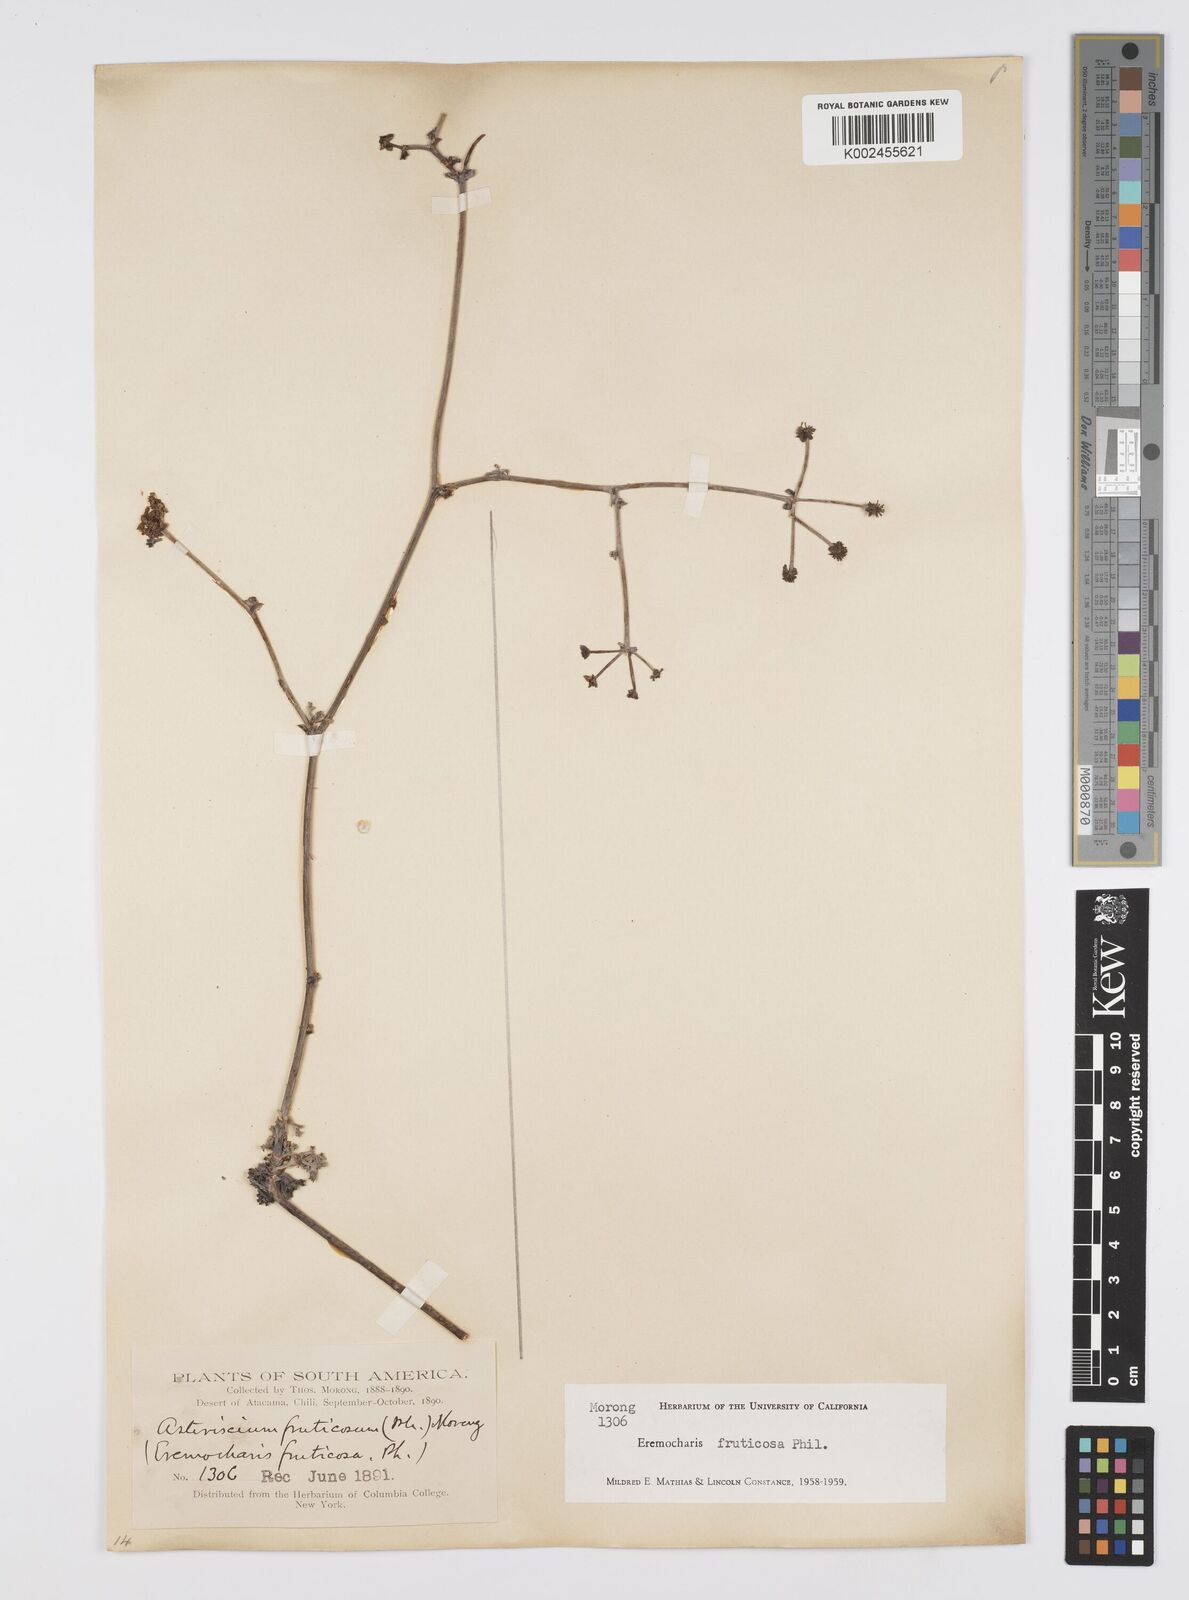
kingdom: Plantae
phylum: Tracheophyta
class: Magnoliopsida
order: Apiales
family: Apiaceae
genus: Eremocharis
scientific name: Eremocharis fruticosa
